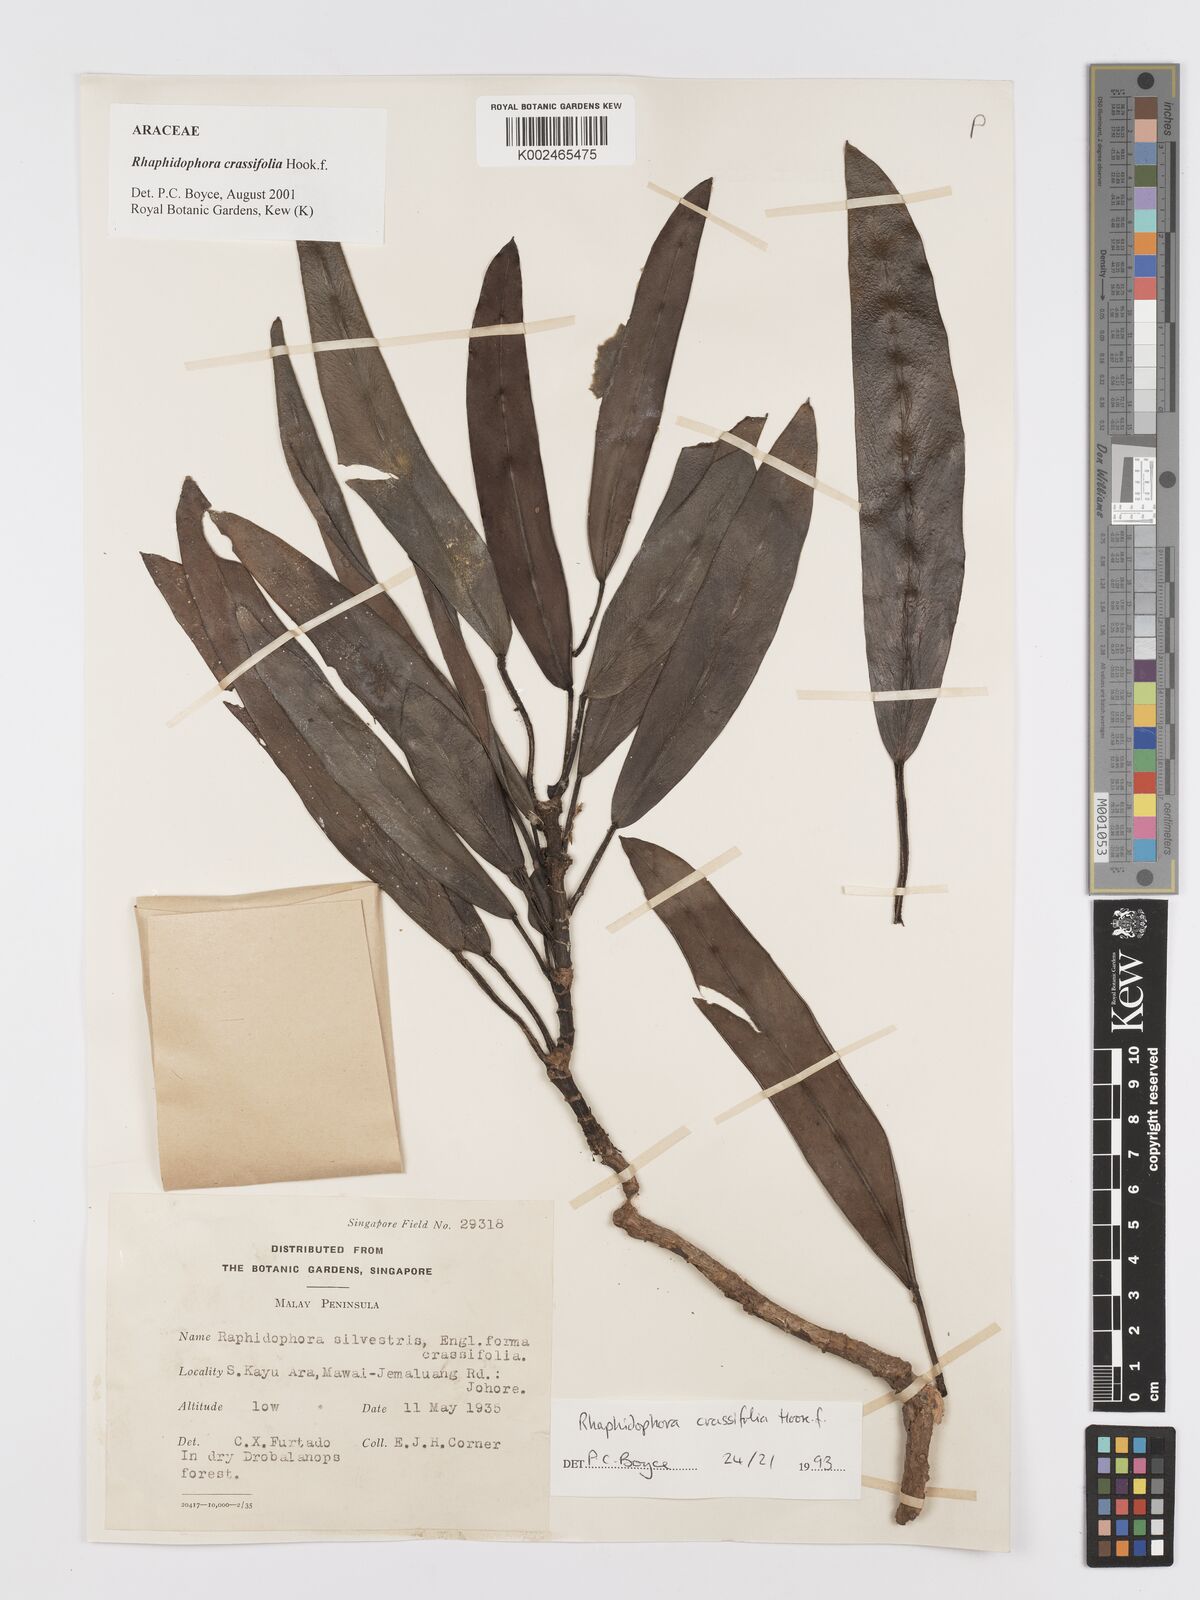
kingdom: Plantae
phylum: Tracheophyta
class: Liliopsida
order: Alismatales
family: Araceae
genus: Rhaphidophora
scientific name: Rhaphidophora crassifolia
